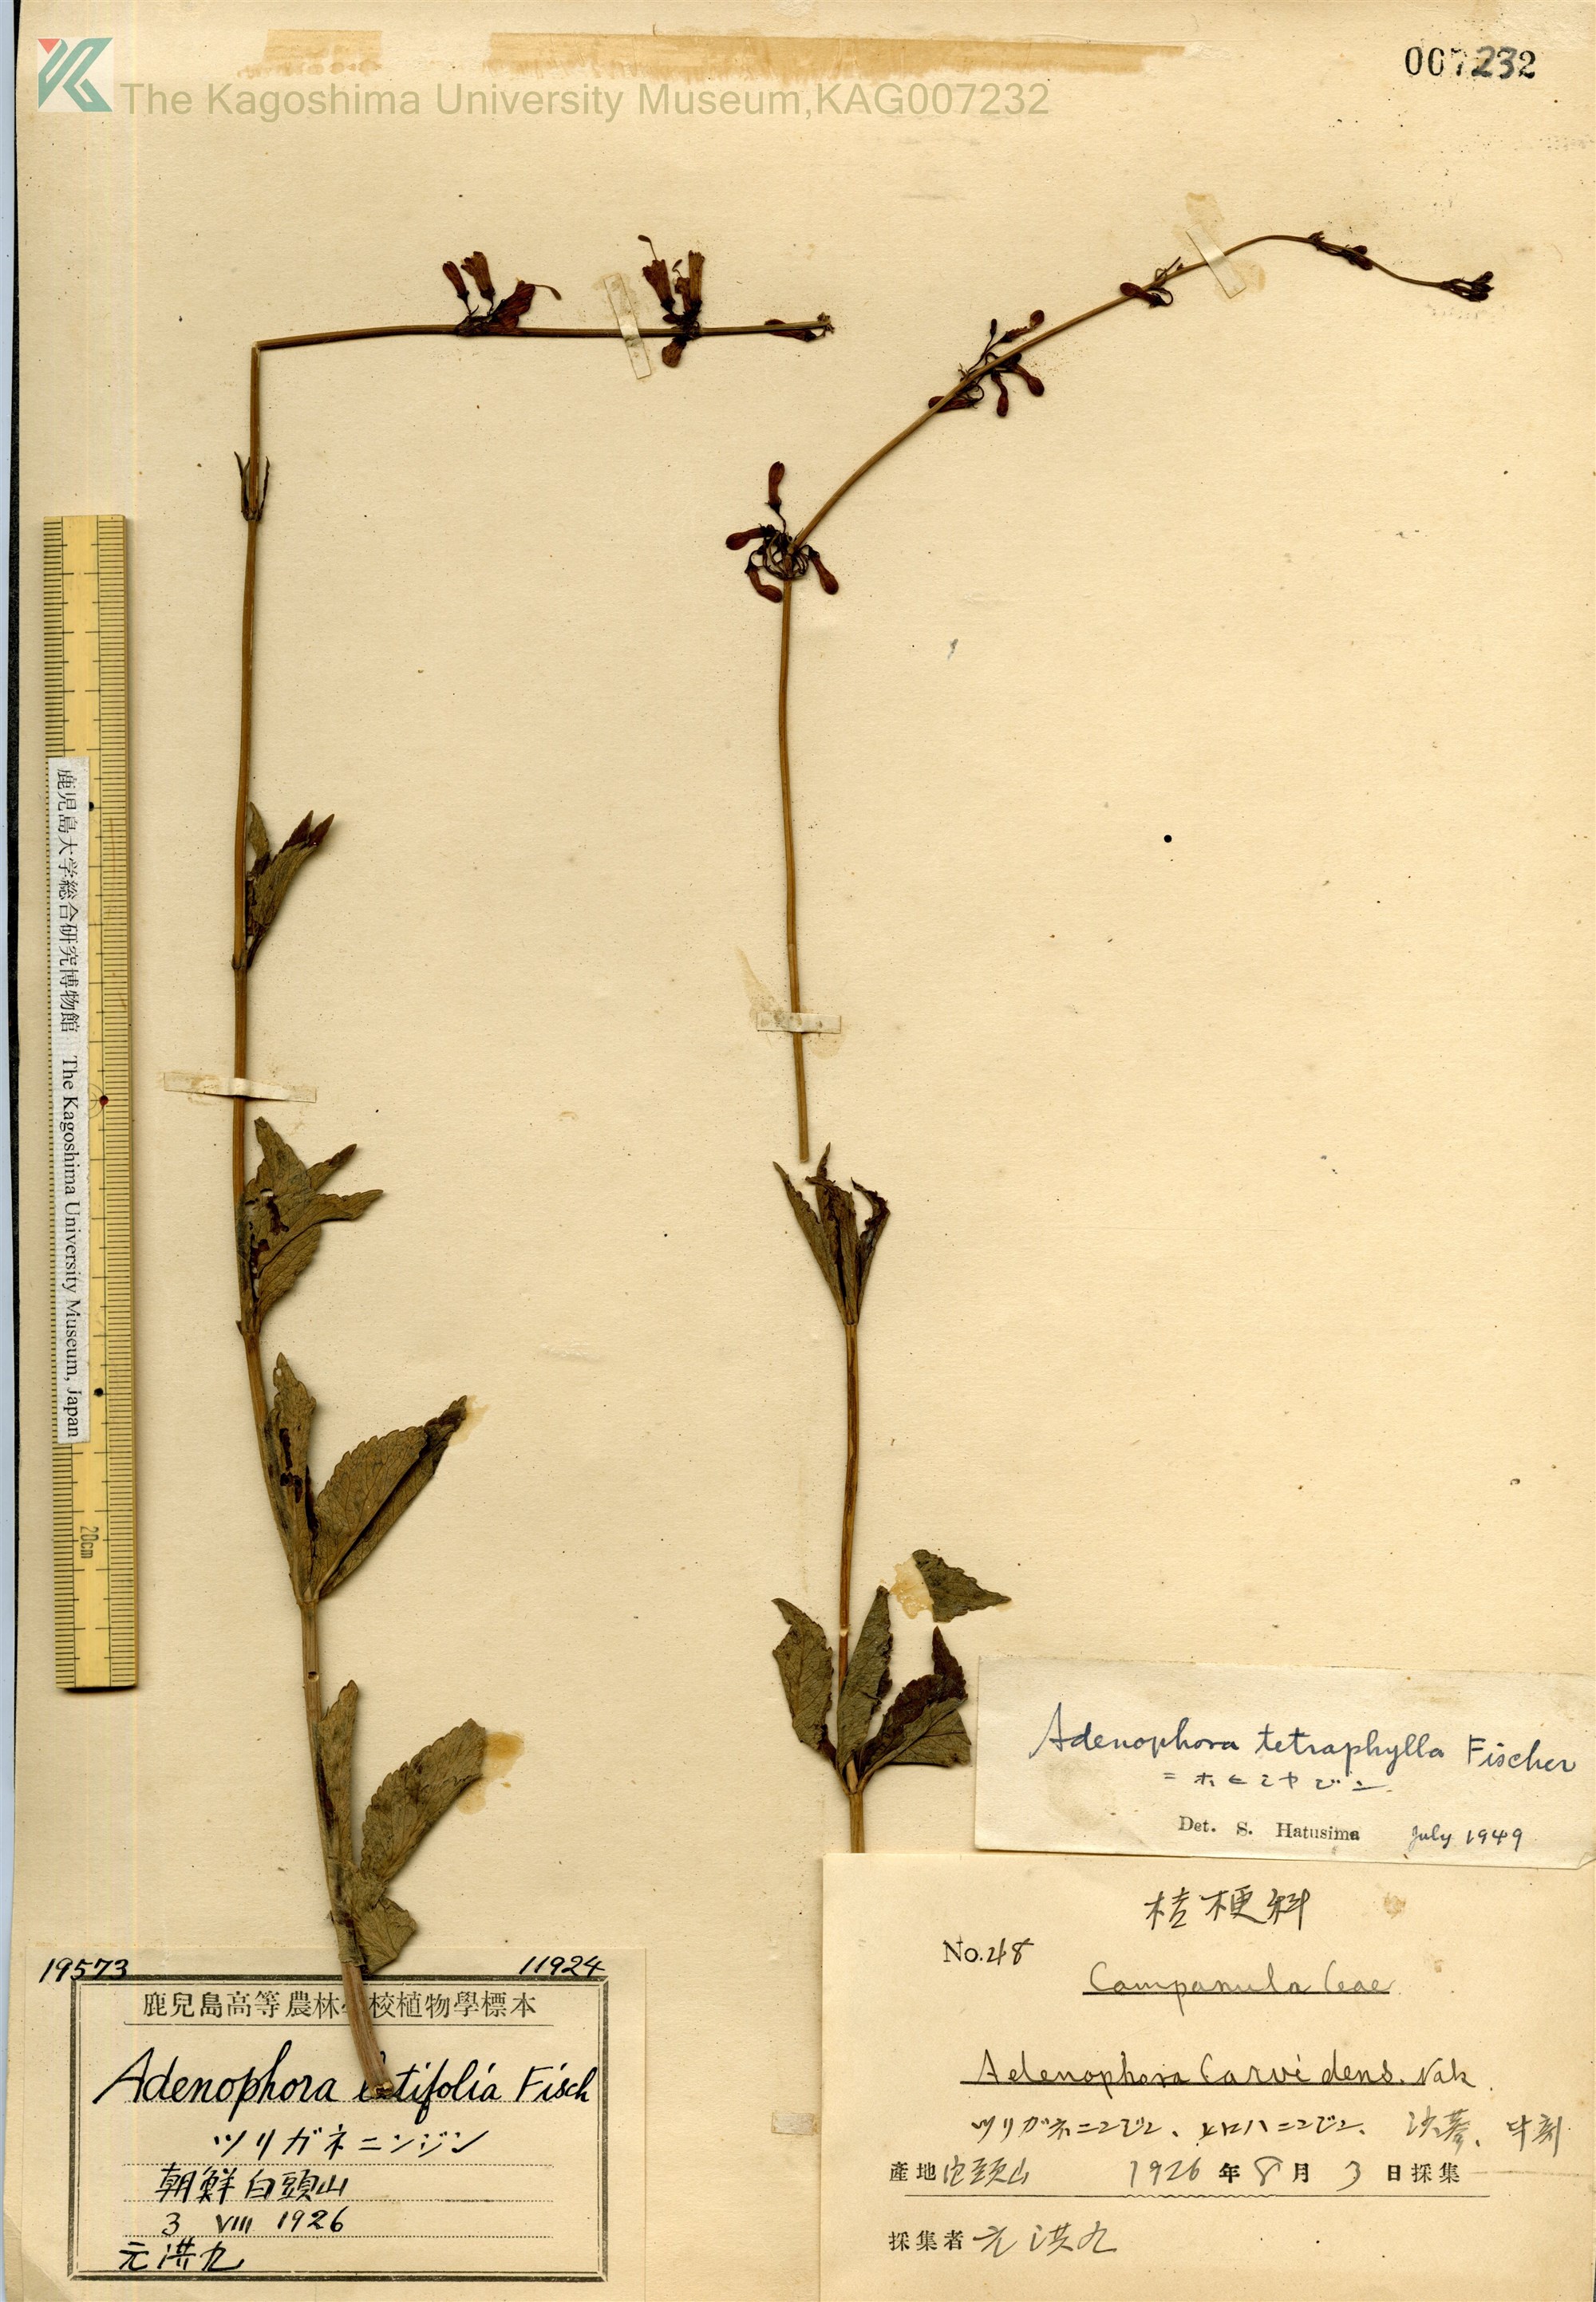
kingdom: Plantae
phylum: Tracheophyta
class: Magnoliopsida
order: Asterales
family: Campanulaceae
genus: Adenophora
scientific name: Adenophora triphylla
